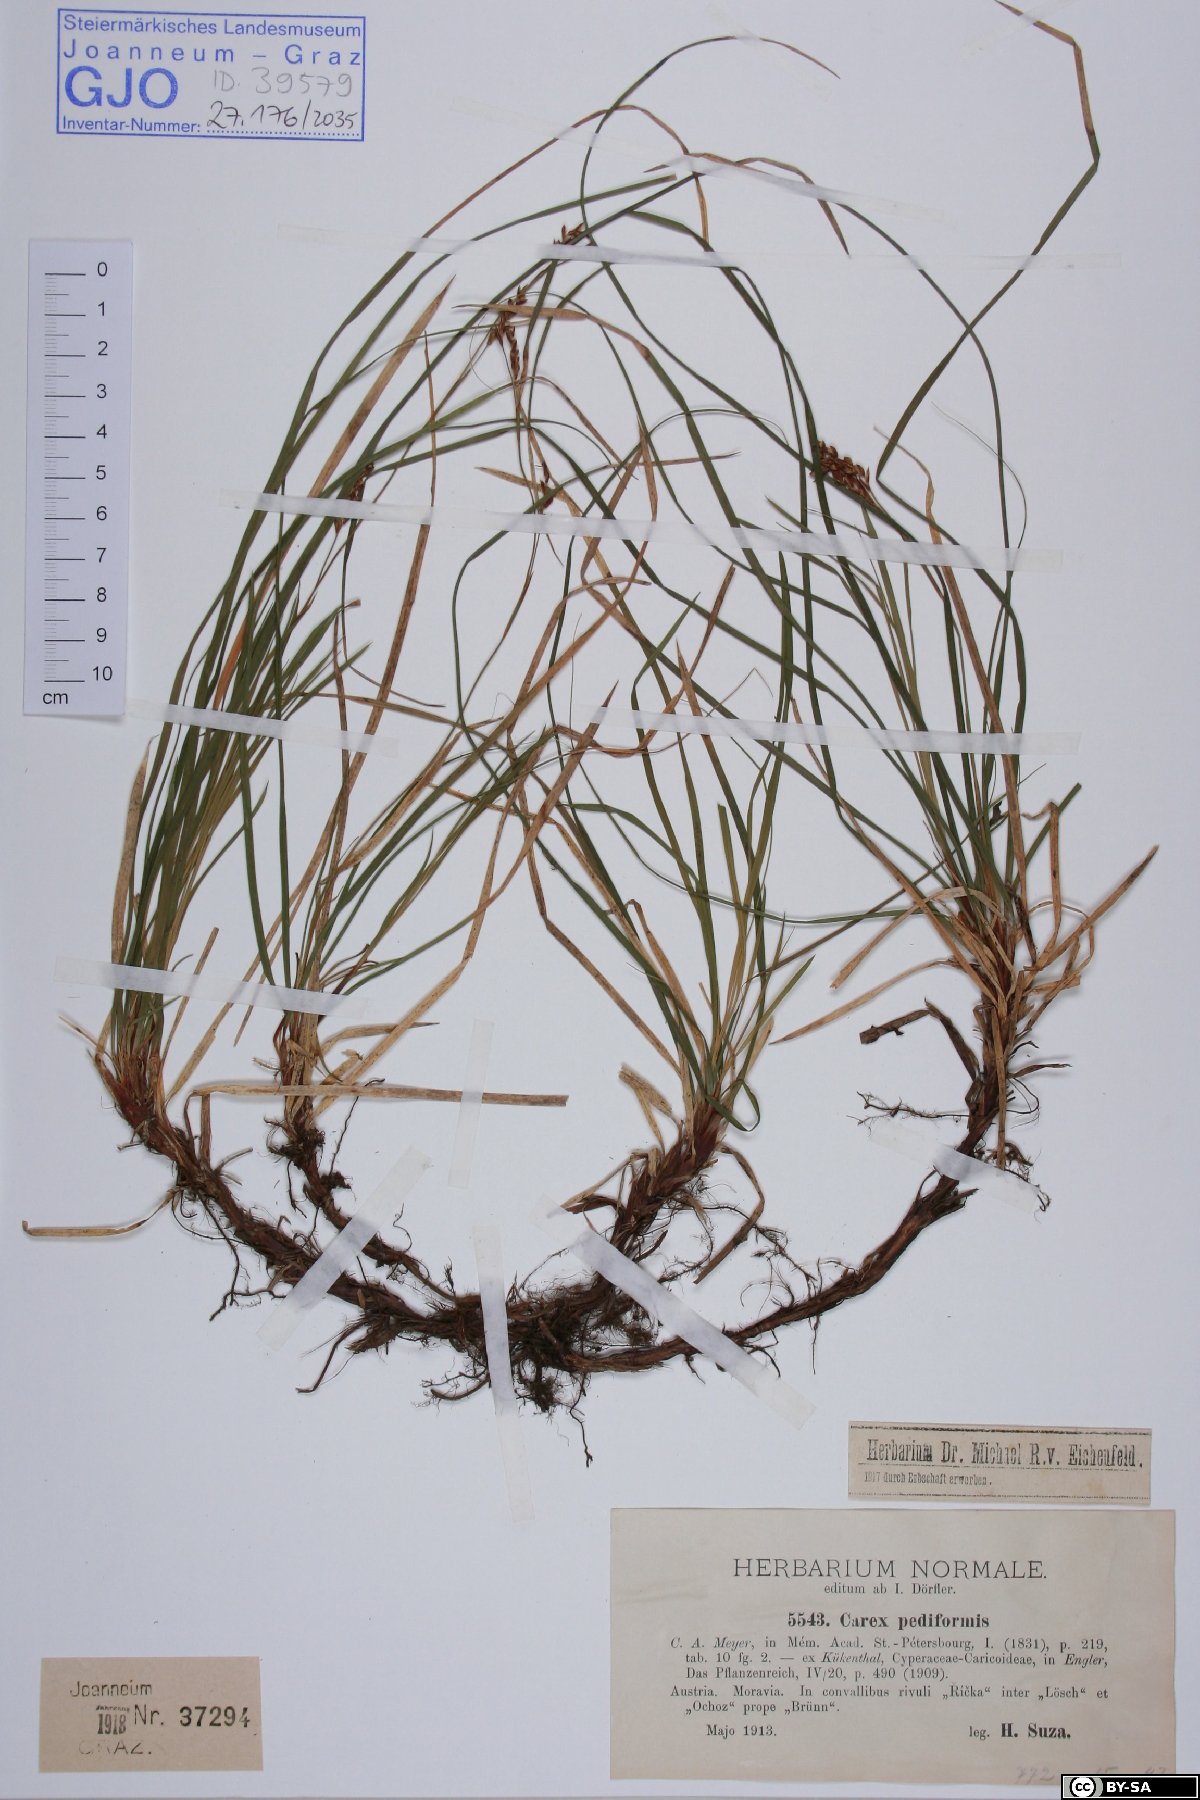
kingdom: Plantae
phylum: Tracheophyta
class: Liliopsida
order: Poales
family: Cyperaceae
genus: Carex
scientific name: Carex pediformis
